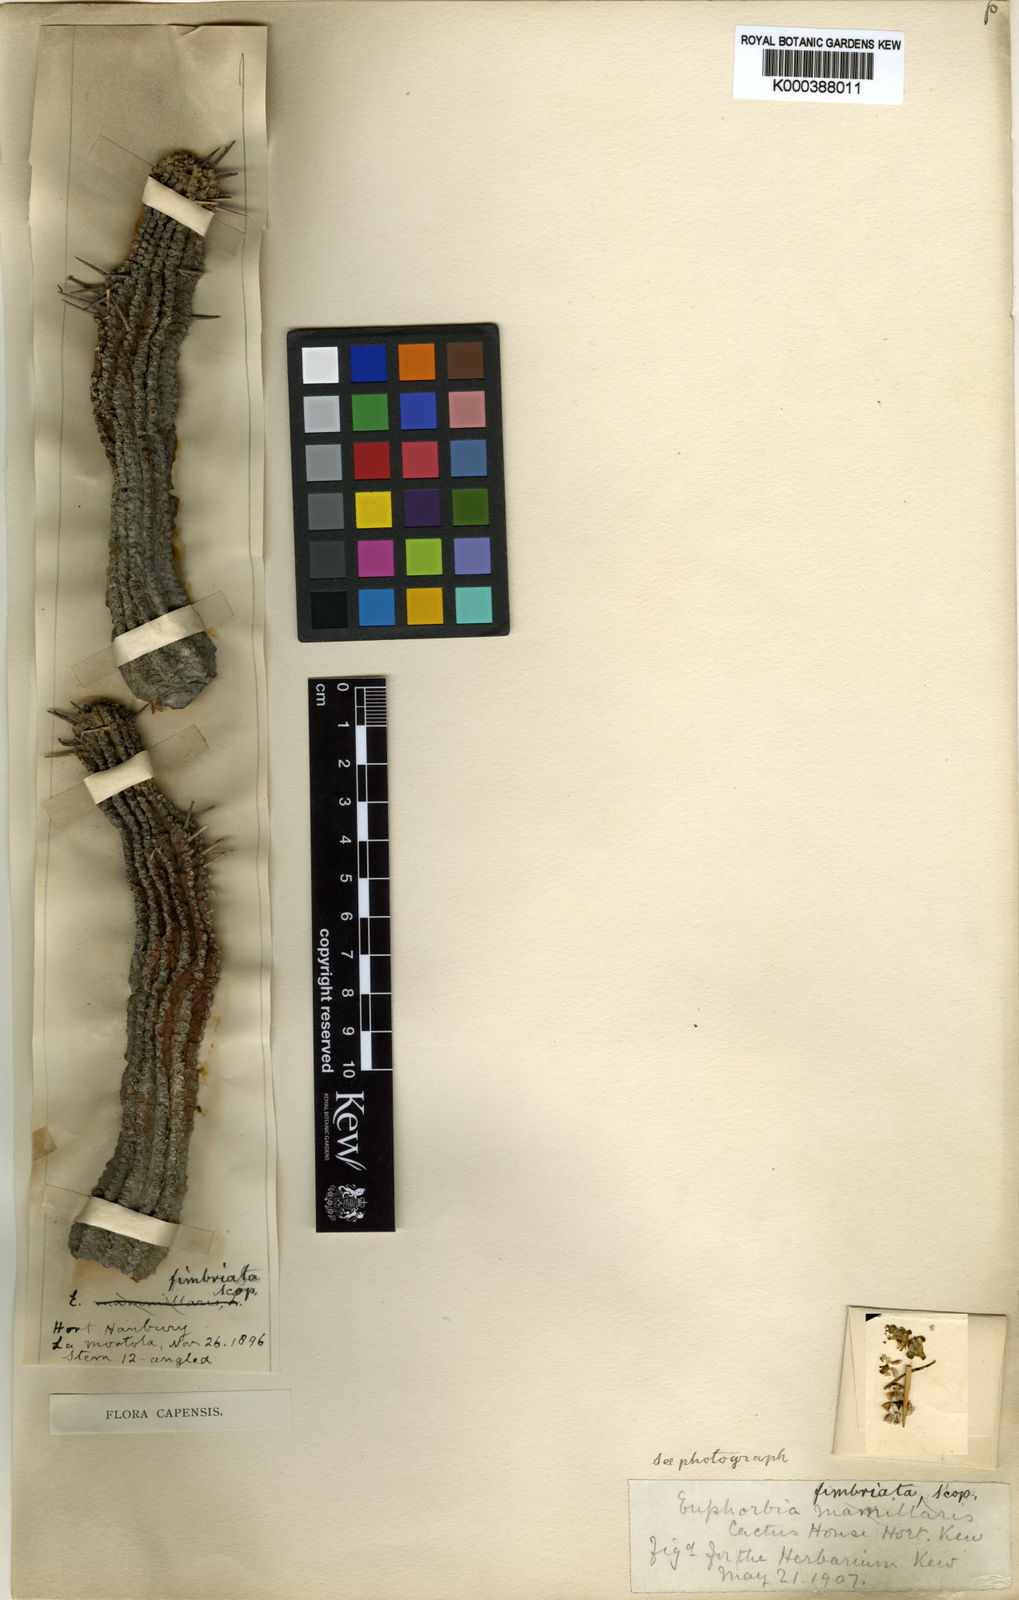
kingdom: Plantae
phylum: Tracheophyta
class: Magnoliopsida
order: Malpighiales
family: Euphorbiaceae
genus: Euphorbia
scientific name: Euphorbia fimbriata
